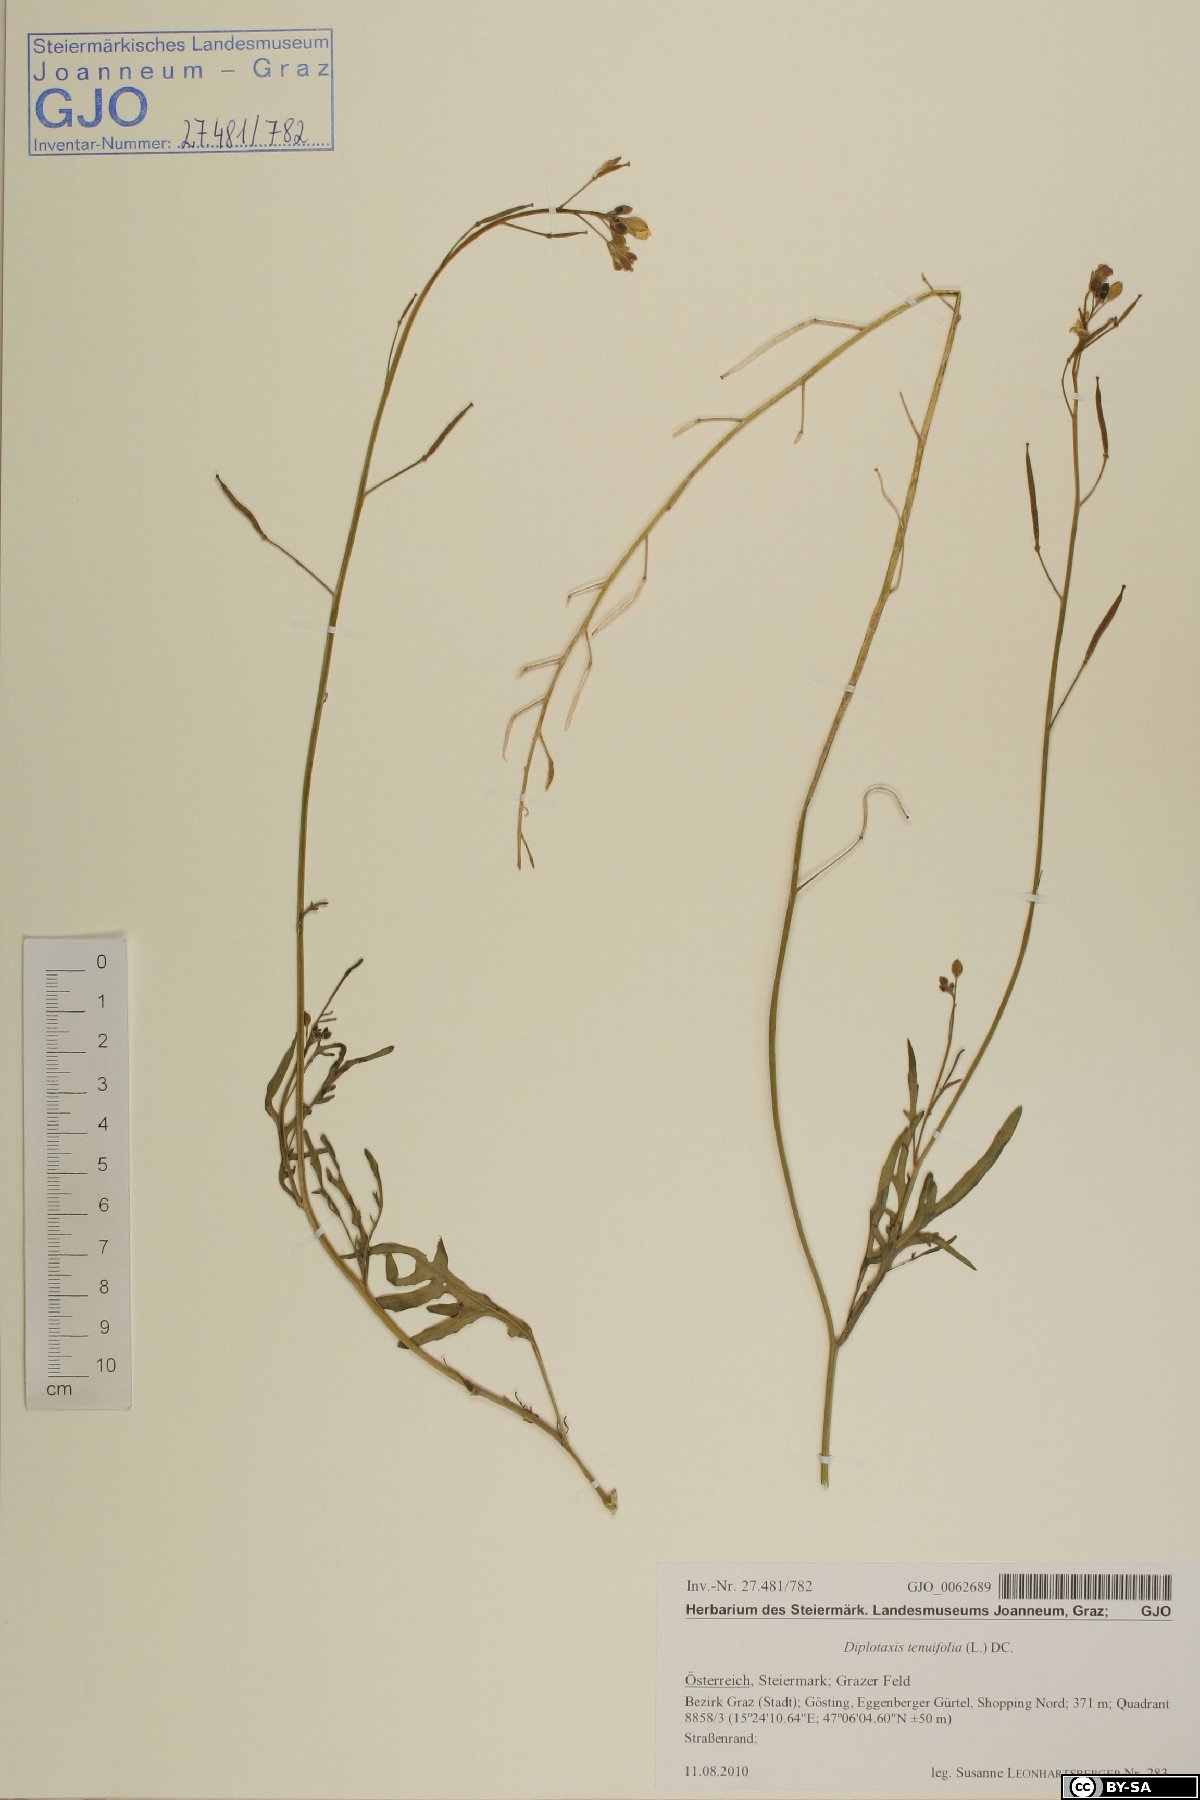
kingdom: Plantae
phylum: Tracheophyta
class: Magnoliopsida
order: Brassicales
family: Brassicaceae
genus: Diplotaxis
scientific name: Diplotaxis tenuifolia
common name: Perennial wall-rocket
